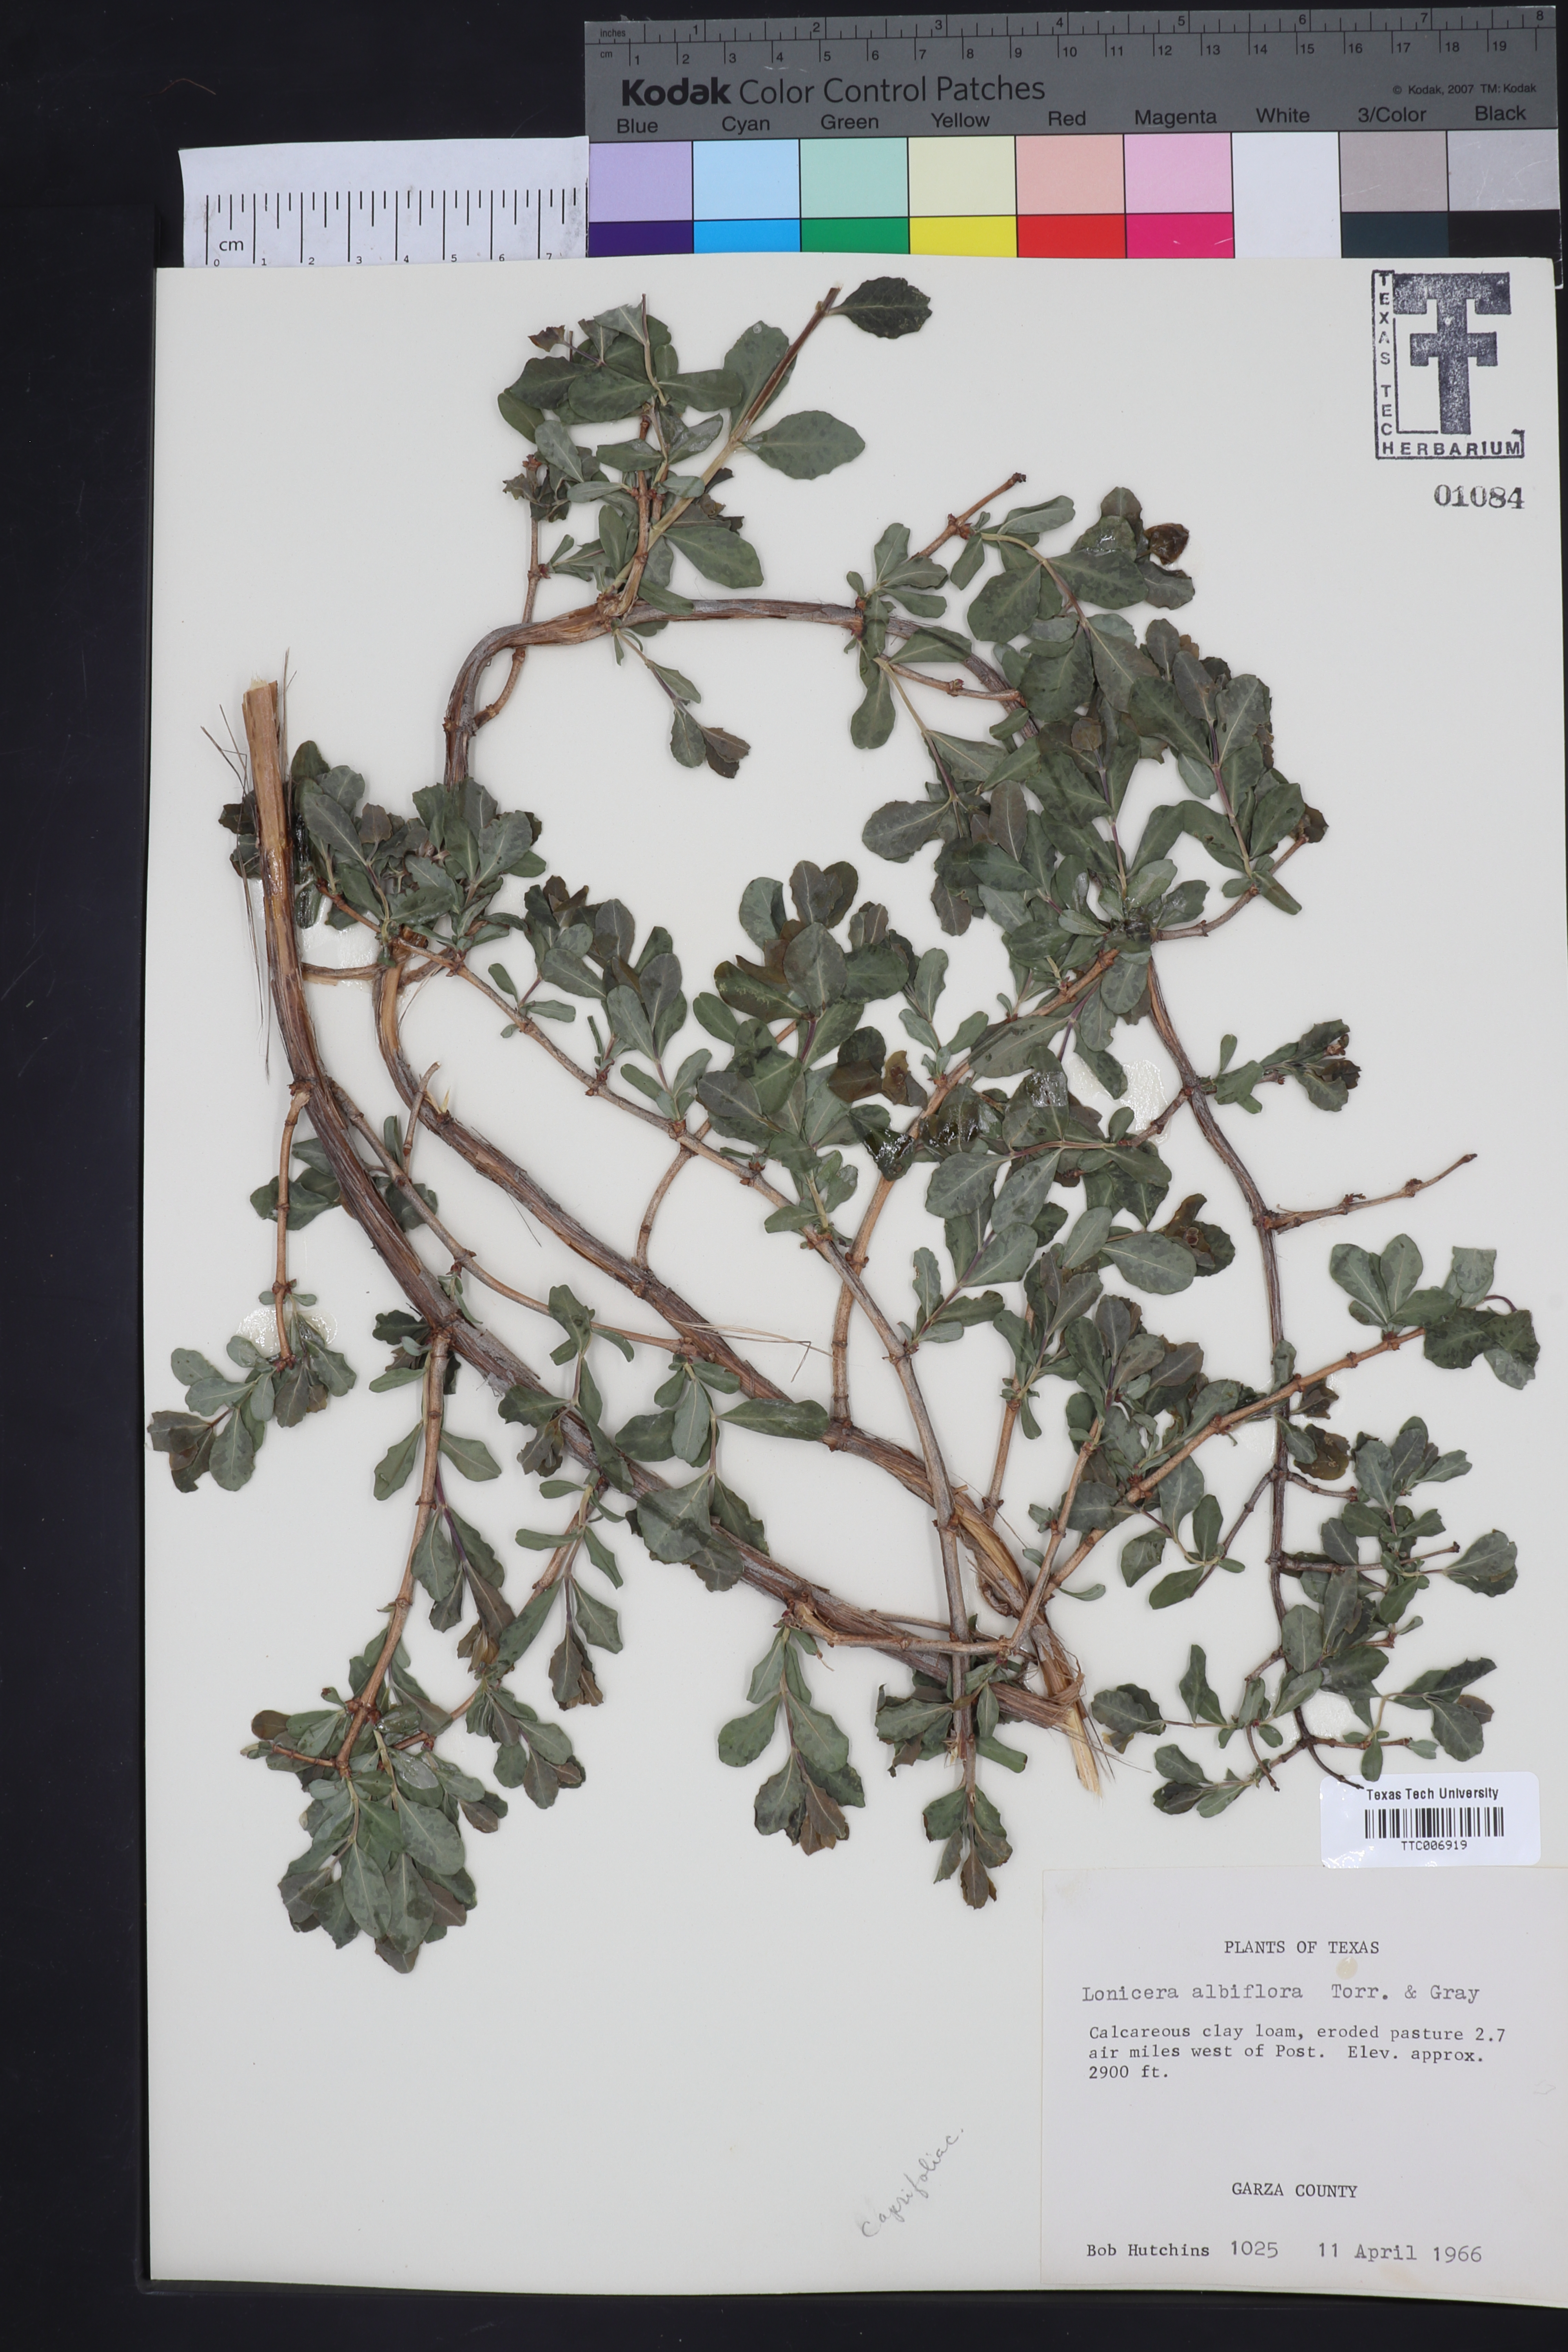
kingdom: Plantae
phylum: Tracheophyta
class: Magnoliopsida
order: Dipsacales
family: Caprifoliaceae
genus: Lonicera
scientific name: Lonicera albiflora
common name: White honeysuckle
